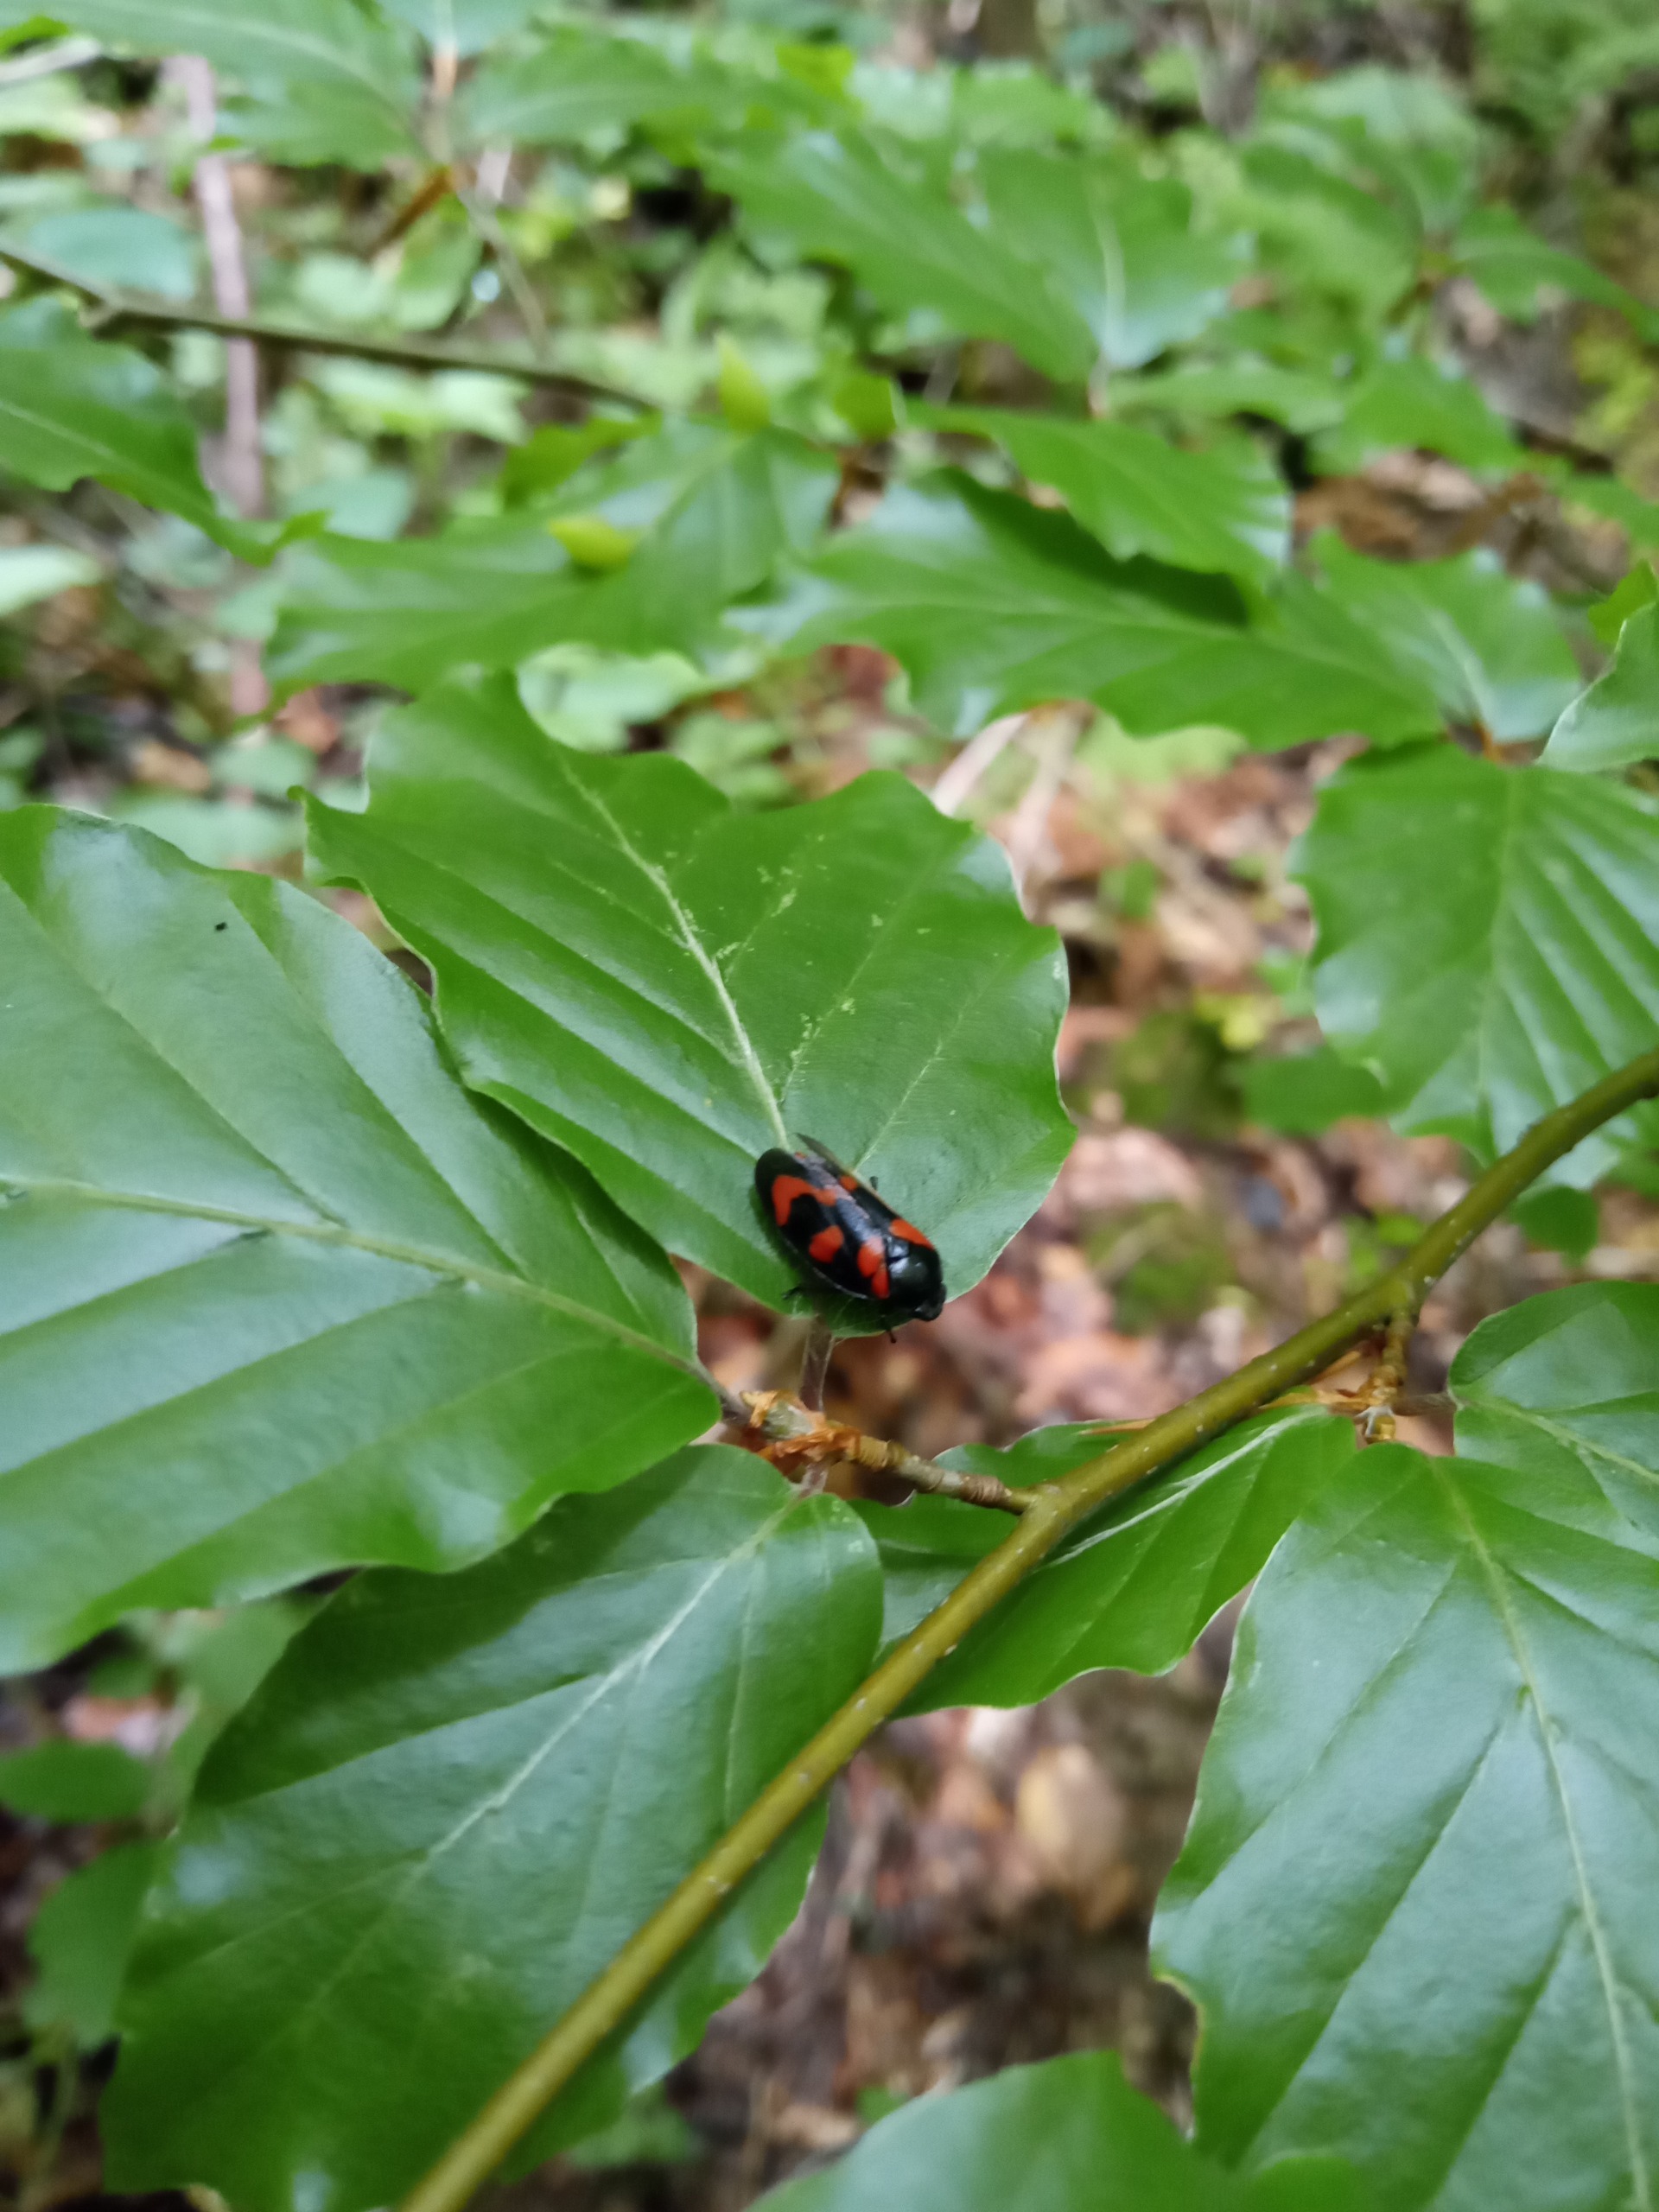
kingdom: Animalia
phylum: Arthropoda
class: Insecta
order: Hemiptera
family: Cercopidae
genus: Cercopis
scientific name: Cercopis vulnerata
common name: Blodcikade
